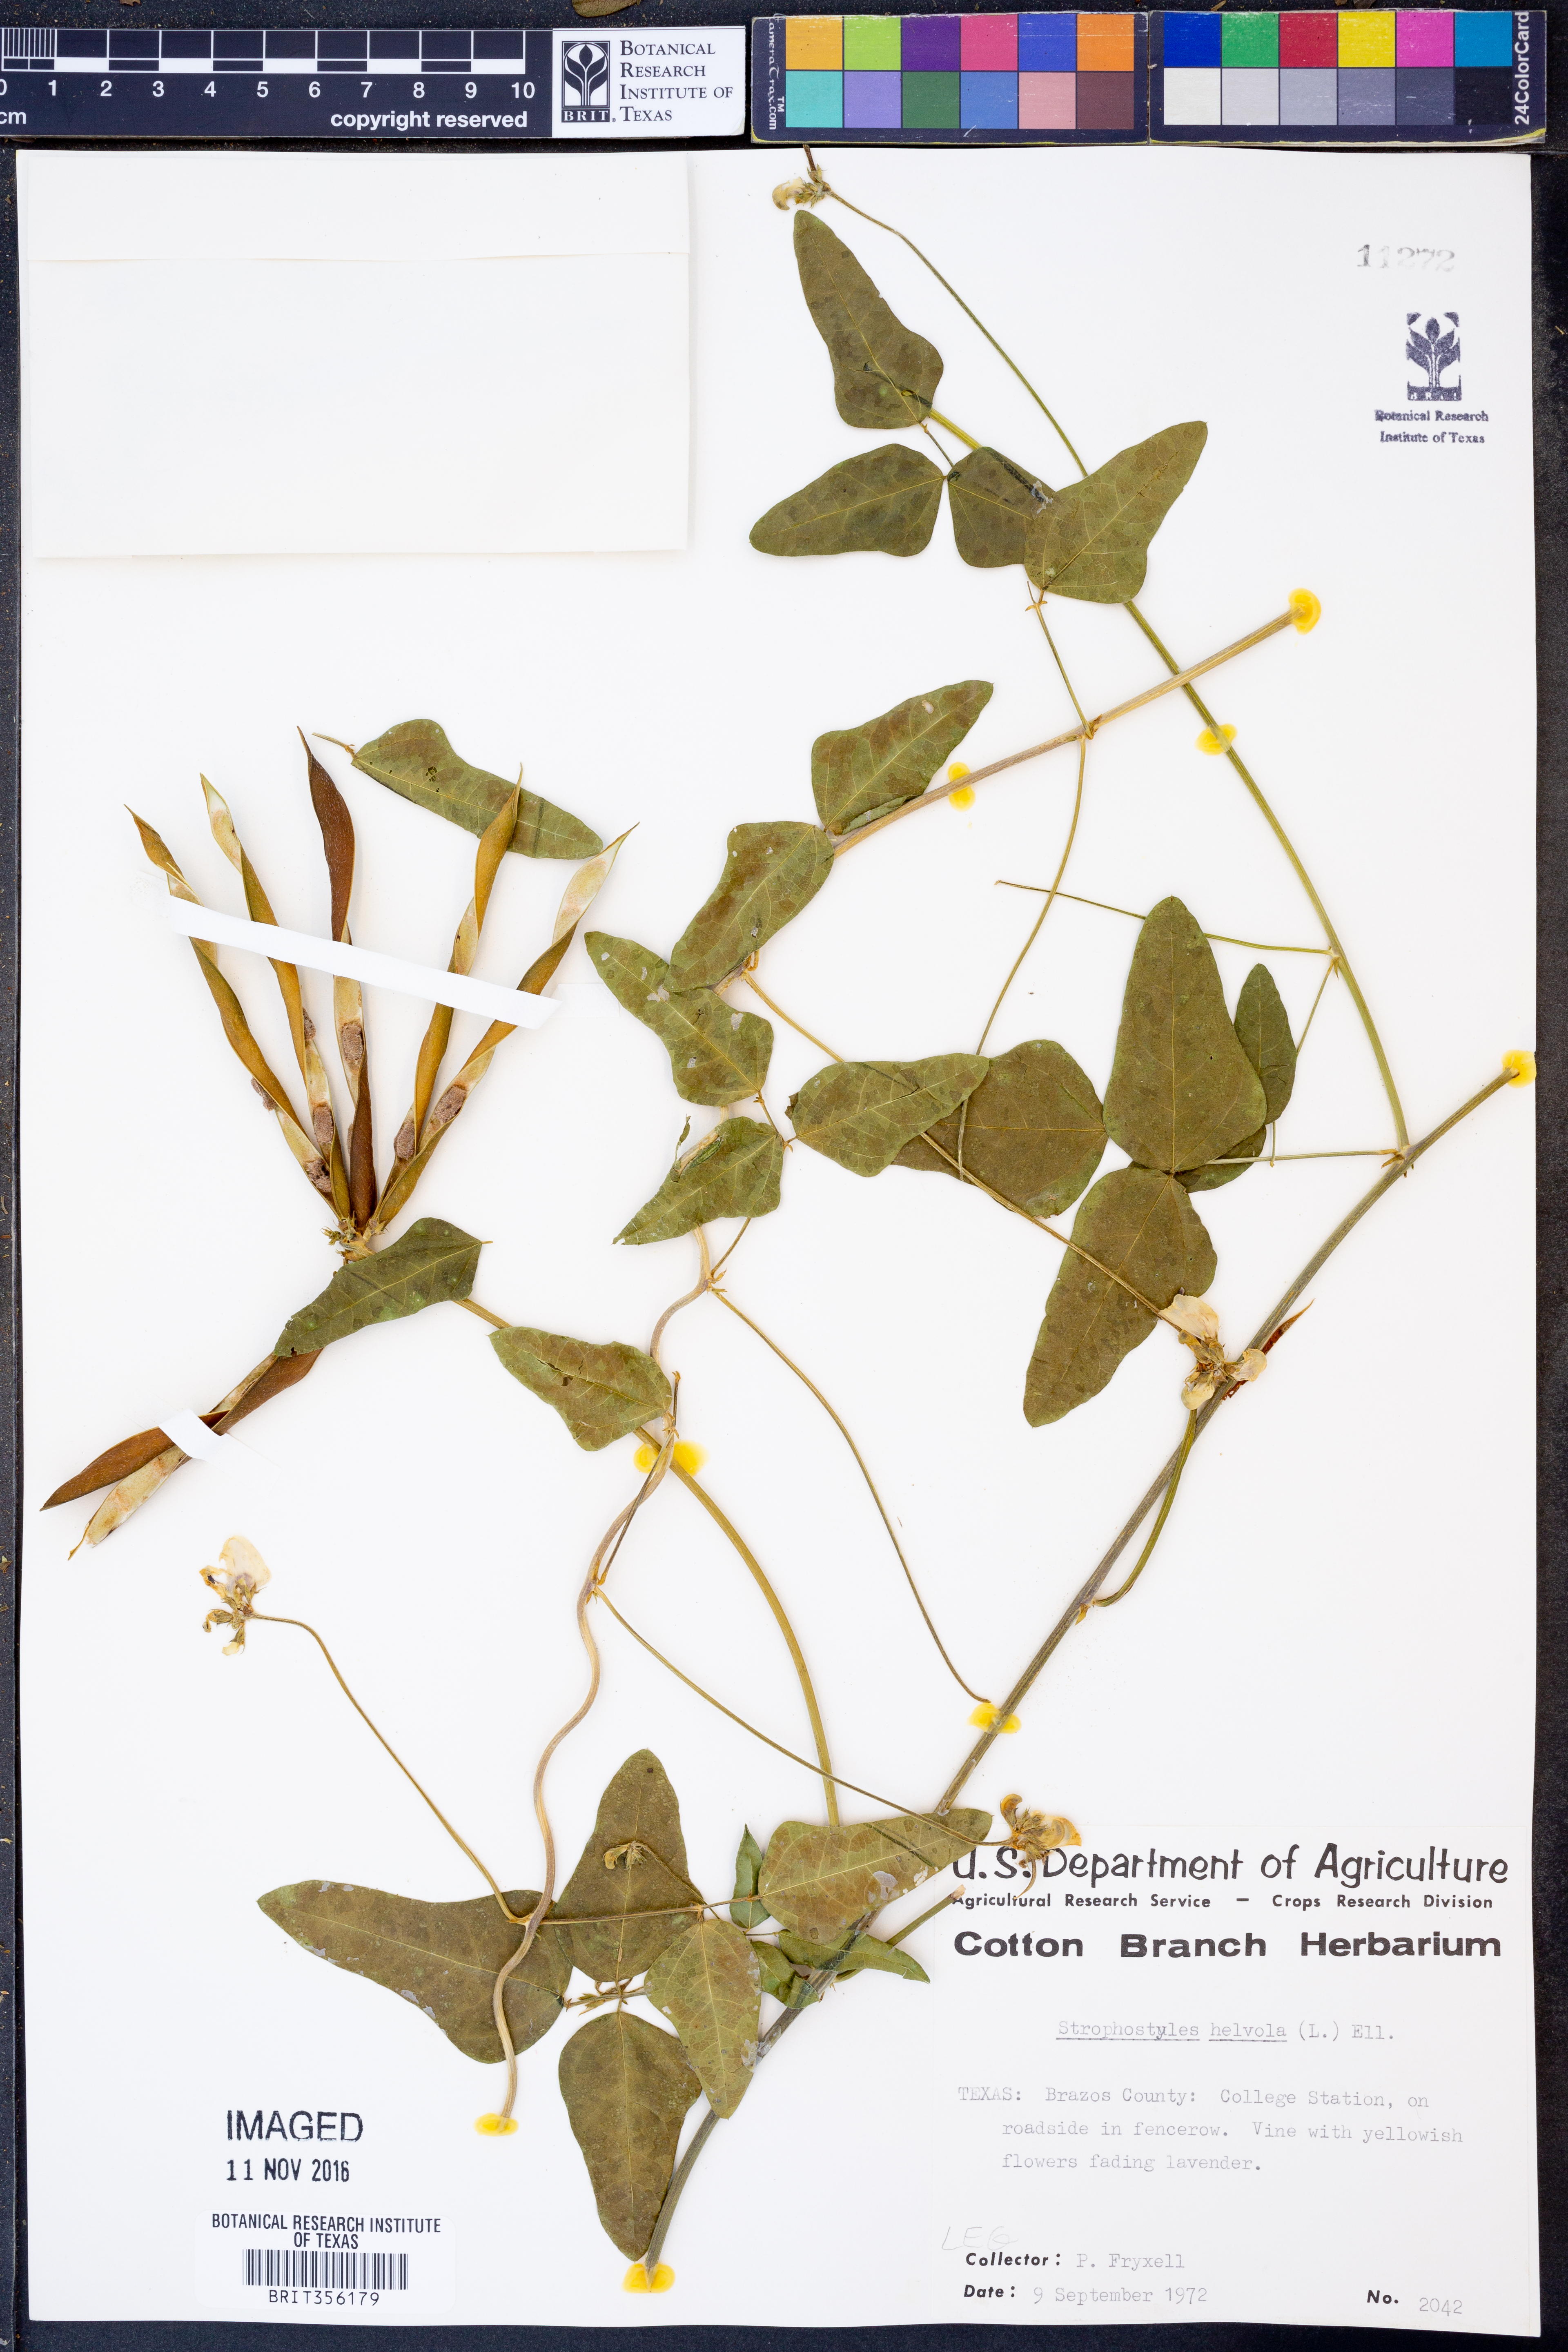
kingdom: Plantae
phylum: Tracheophyta
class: Magnoliopsida
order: Fabales
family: Fabaceae
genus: Strophostyles
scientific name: Strophostyles helvola
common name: Trailing wild bean
